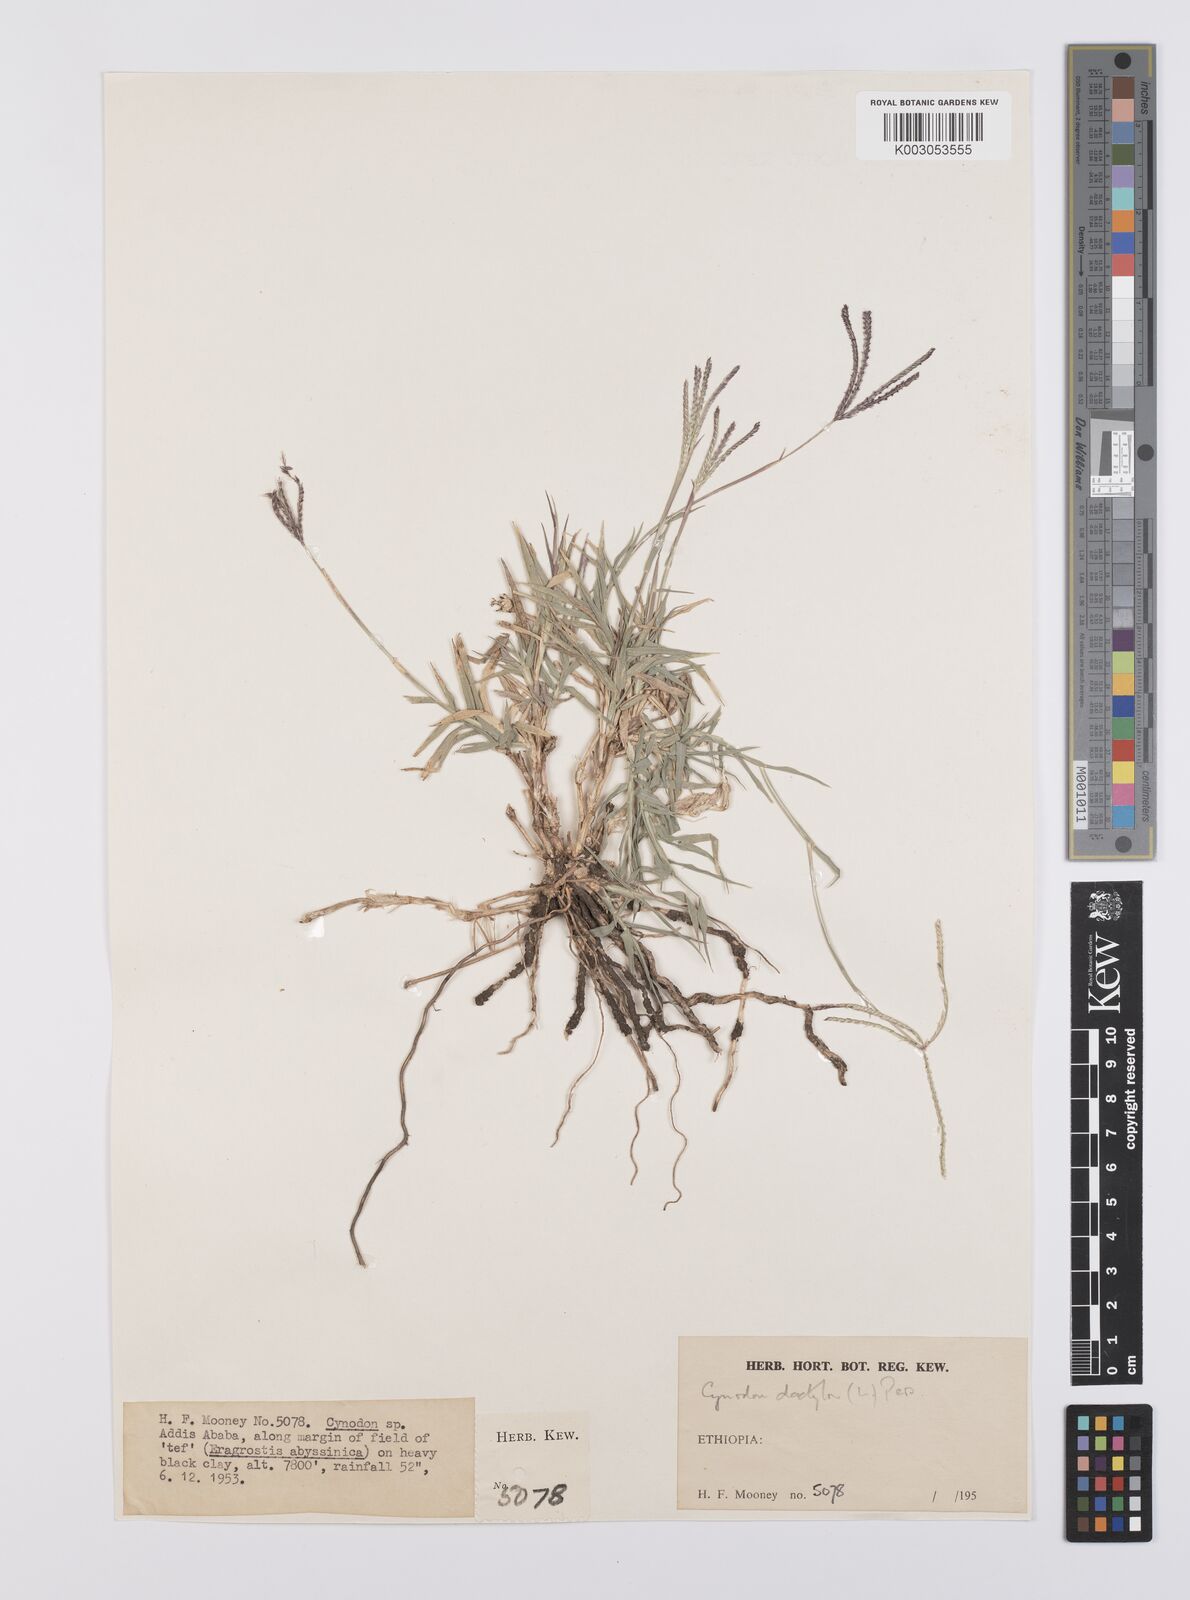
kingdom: Plantae
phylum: Tracheophyta
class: Liliopsida
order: Poales
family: Poaceae
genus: Cynodon
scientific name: Cynodon dactylon
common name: Bermuda grass
